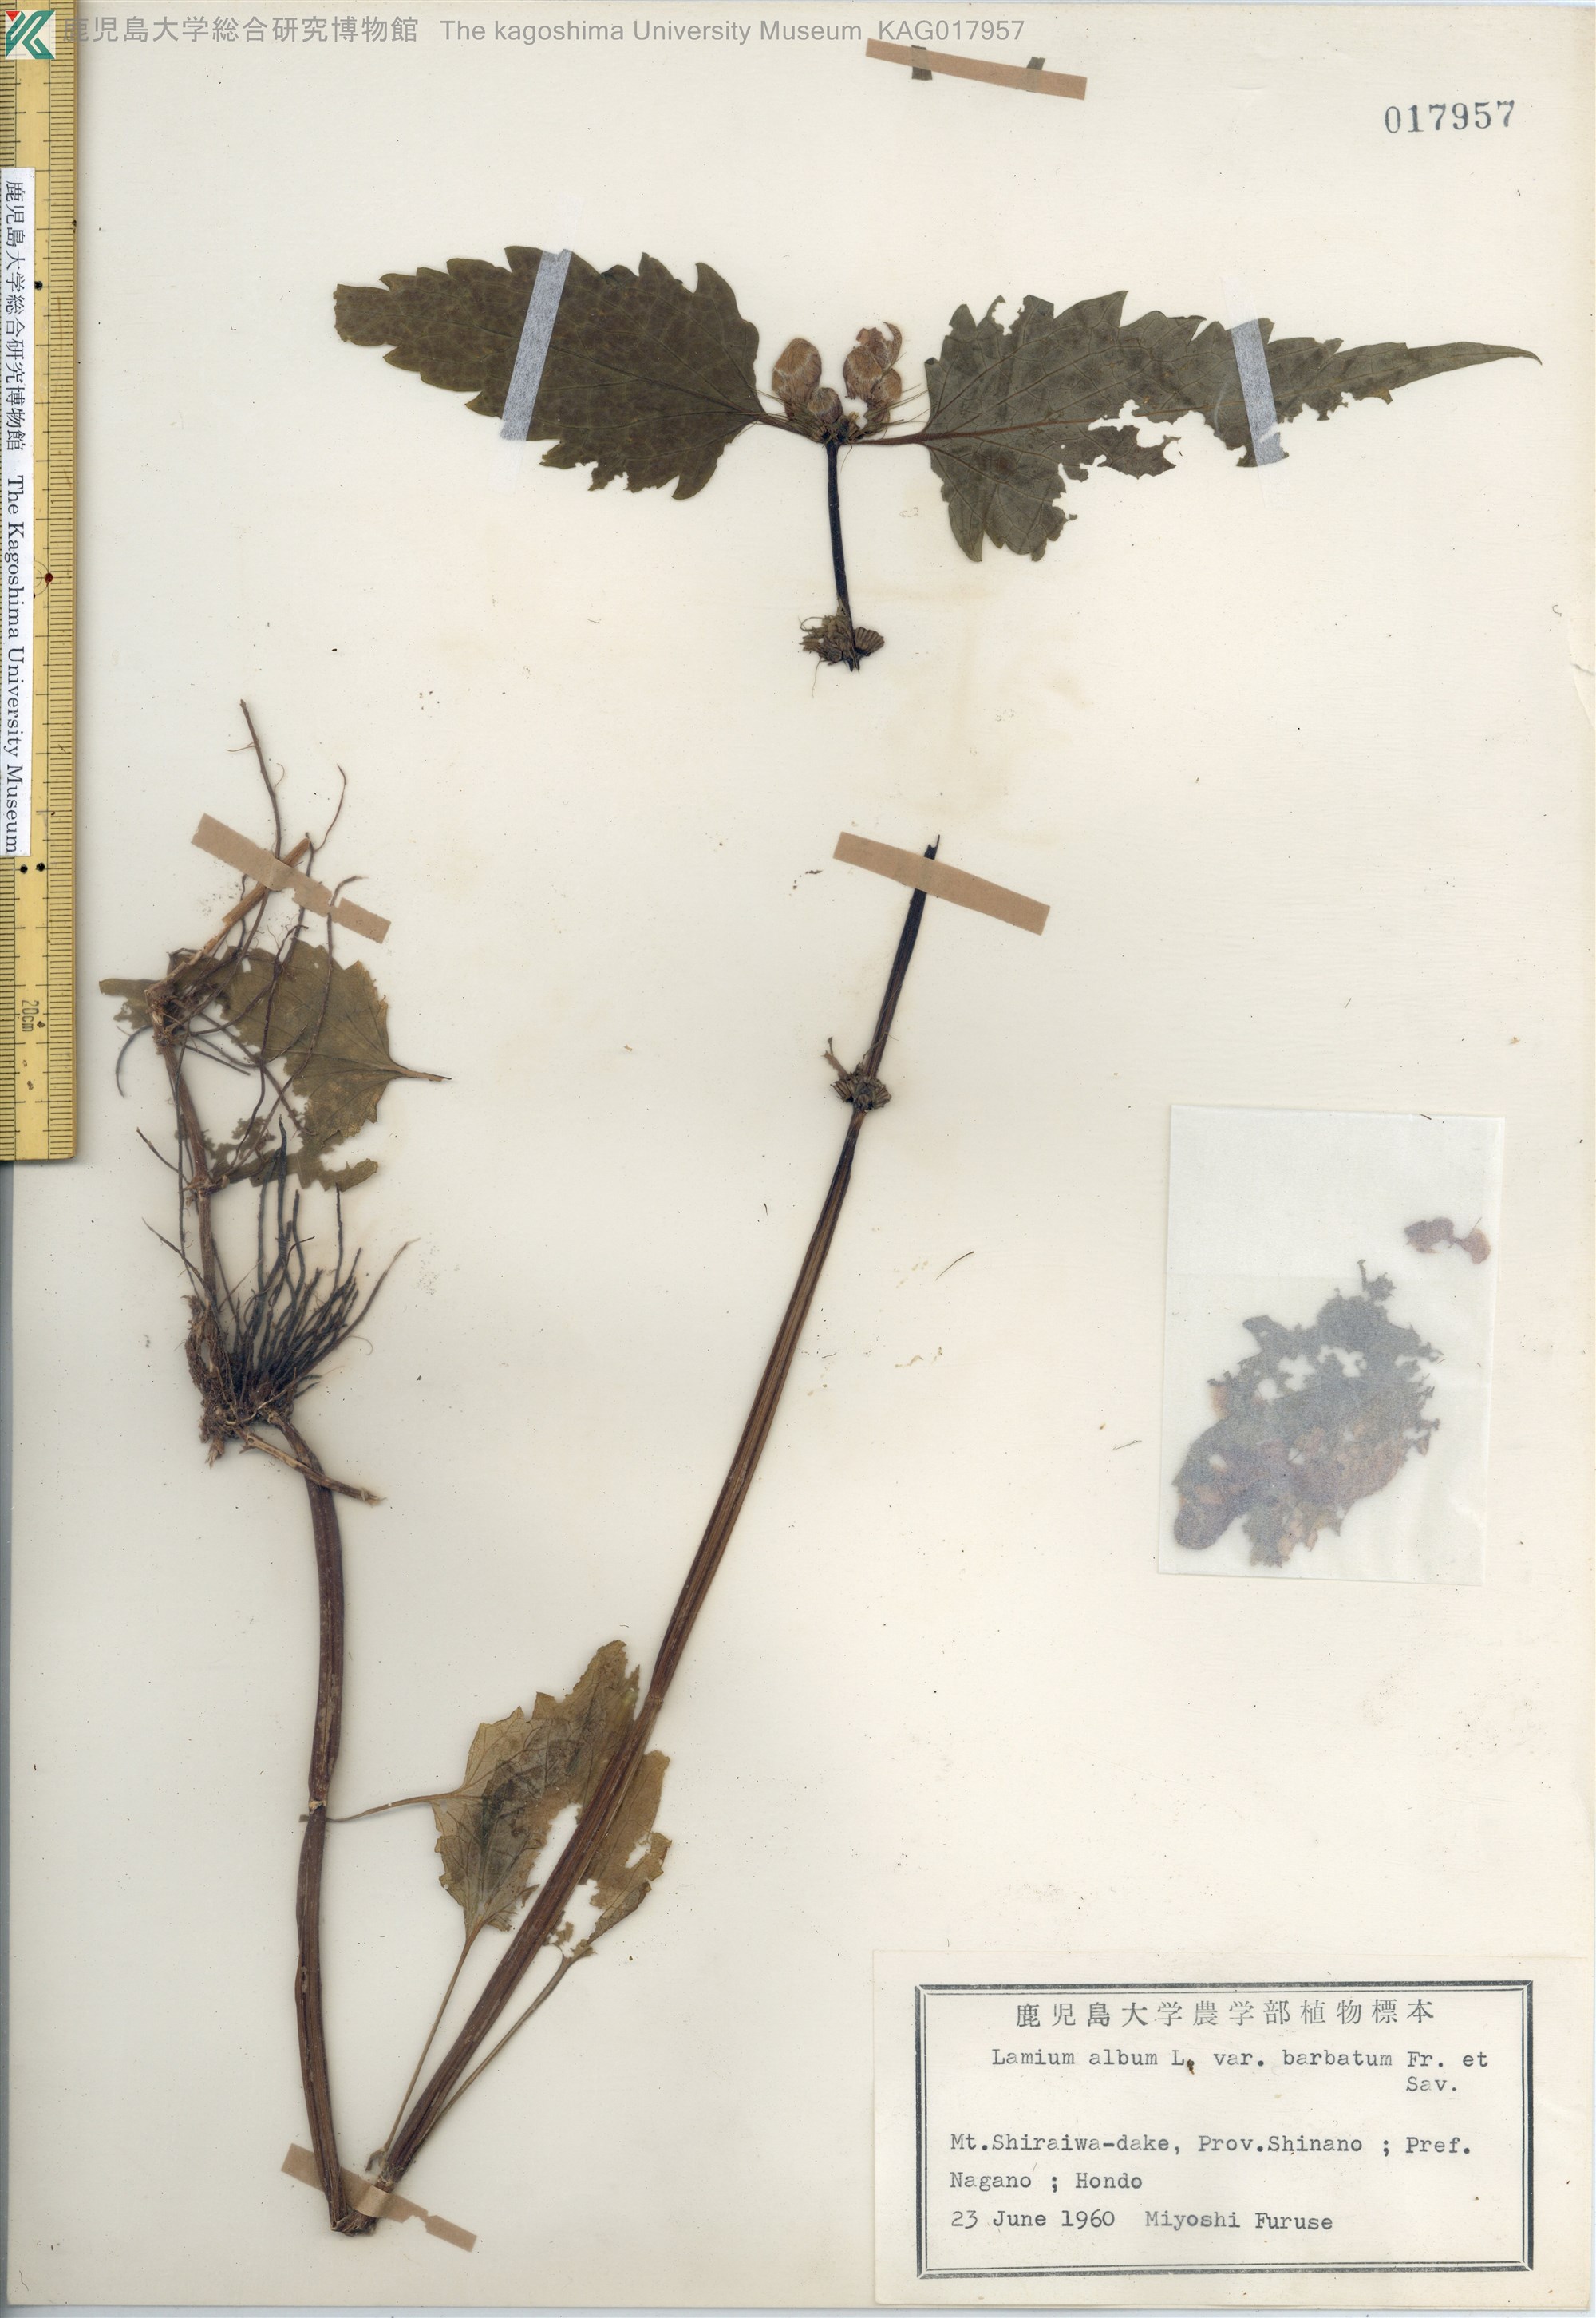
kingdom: Plantae
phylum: Tracheophyta
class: Magnoliopsida
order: Lamiales
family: Lamiaceae
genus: Lamium
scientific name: Lamium album
